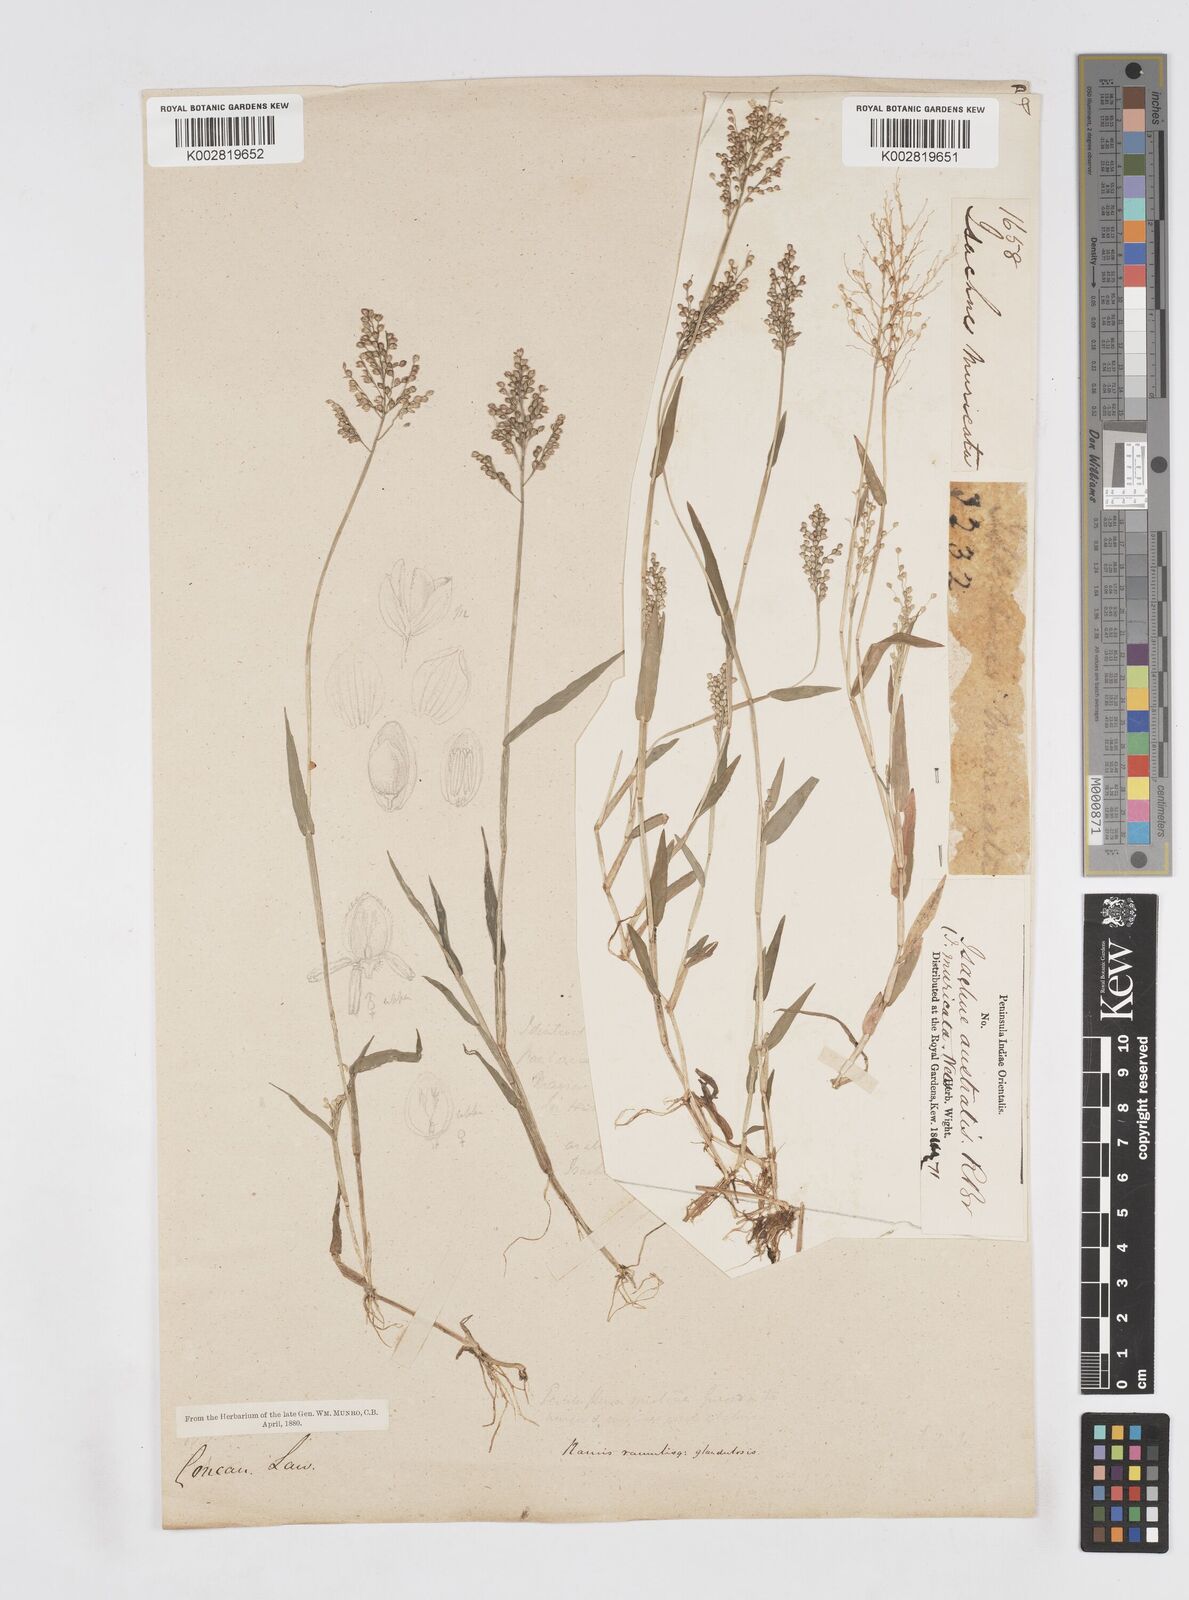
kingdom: Plantae
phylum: Tracheophyta
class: Liliopsida
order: Poales
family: Poaceae
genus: Isachne
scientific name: Isachne globosa
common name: Swamp millet
